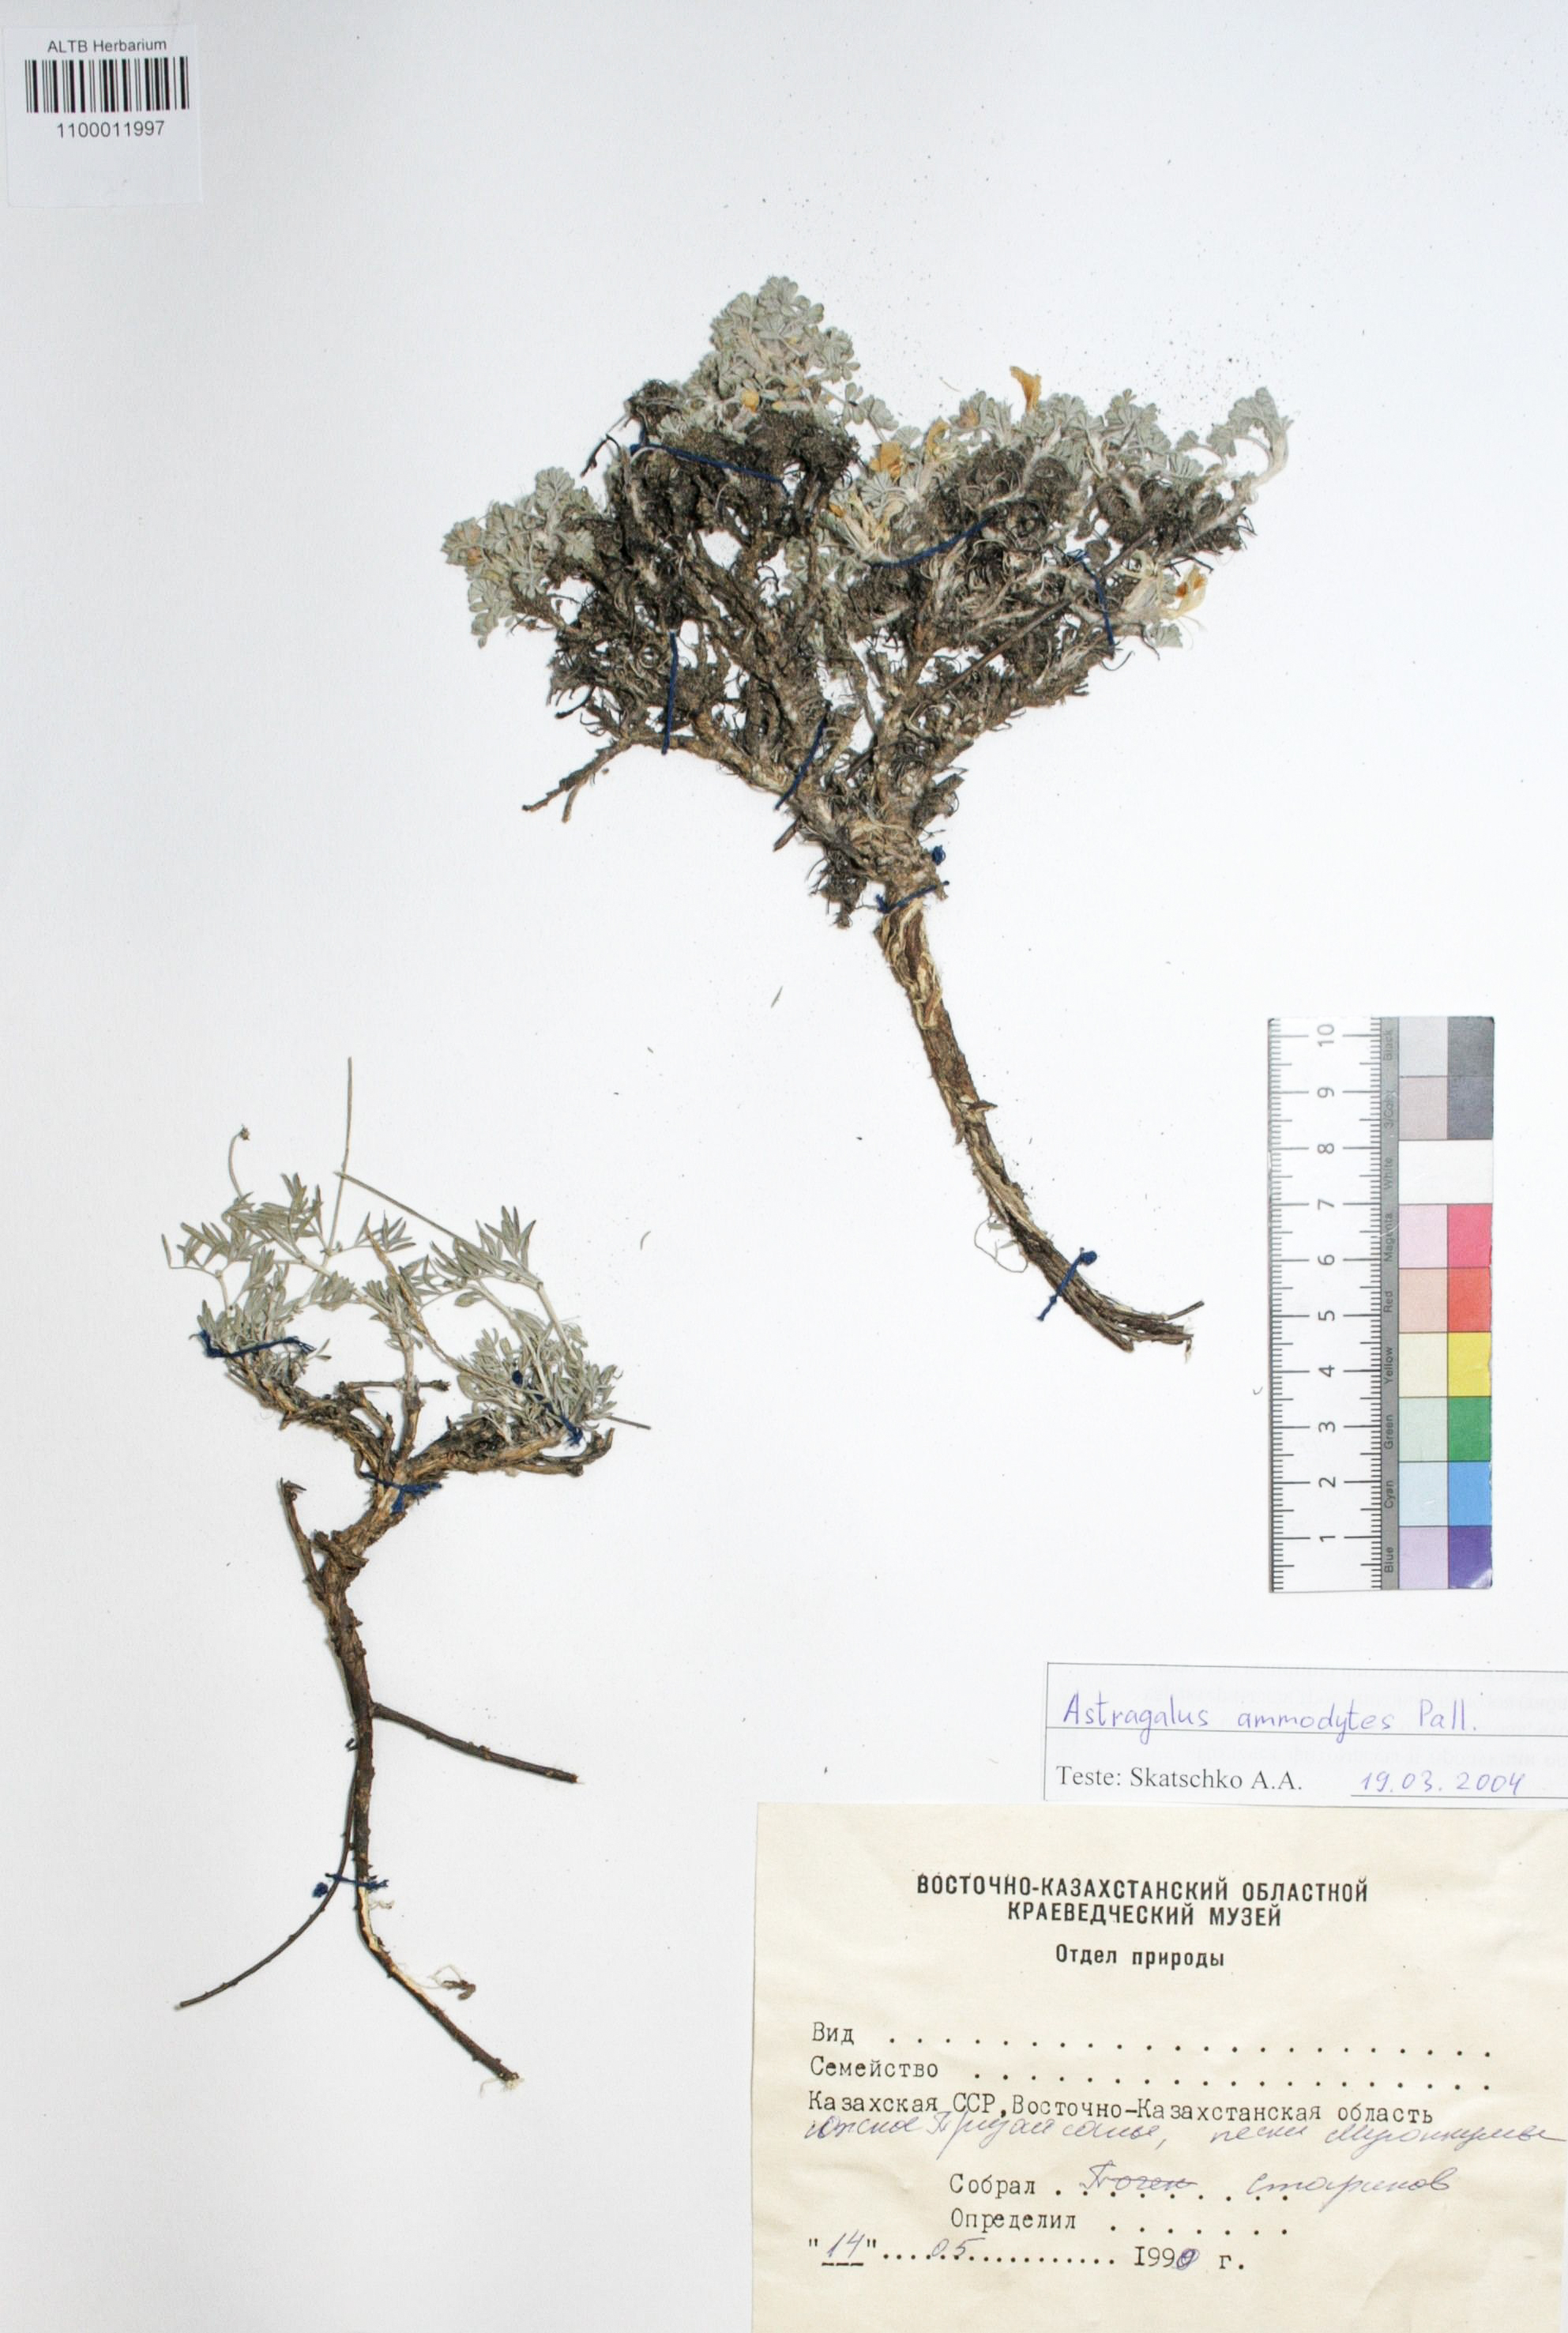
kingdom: Plantae
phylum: Tracheophyta
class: Magnoliopsida
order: Fabales
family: Fabaceae
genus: Astragalus
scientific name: Astragalus ammodytes
